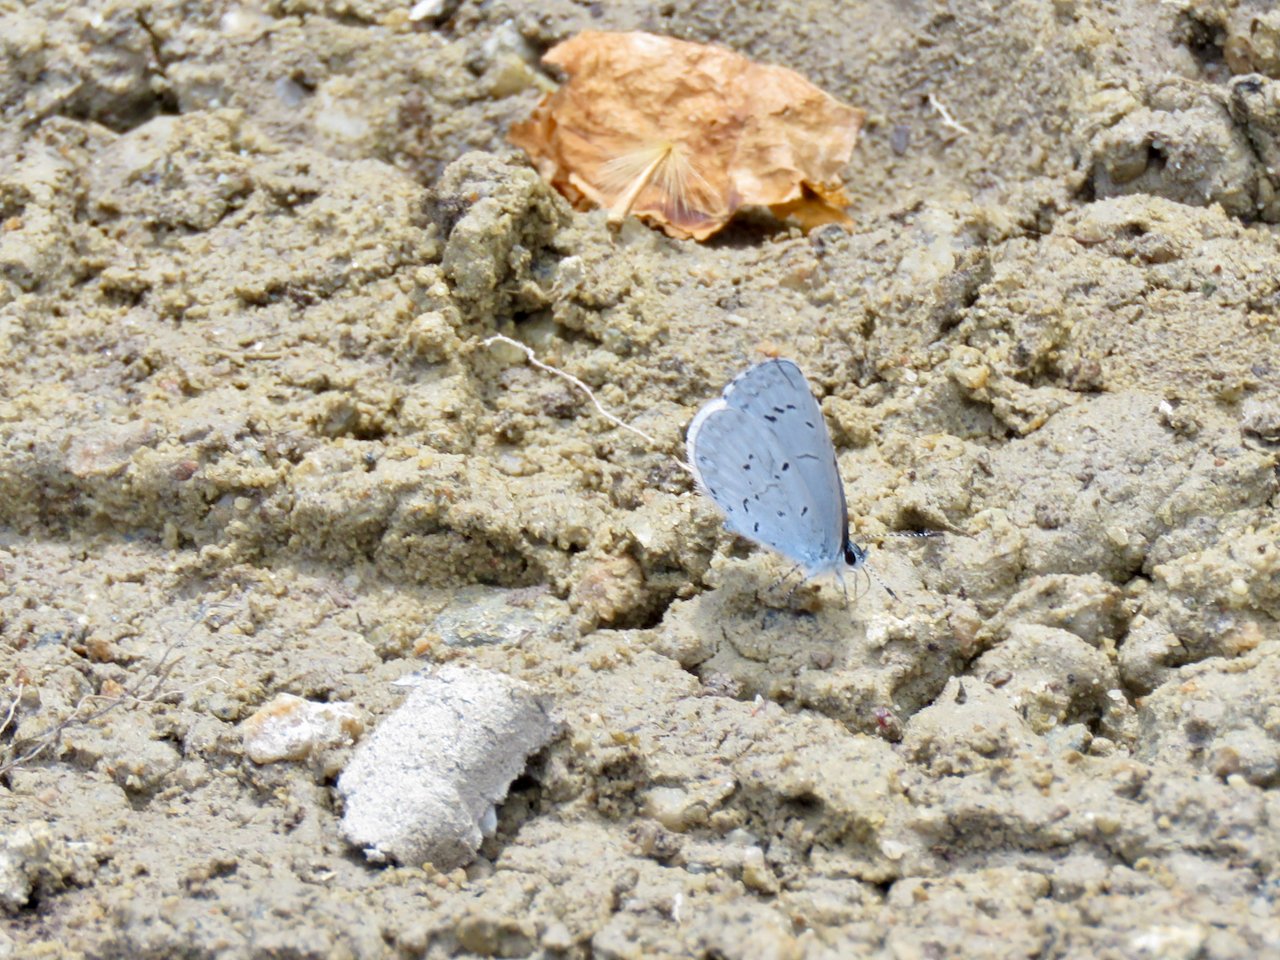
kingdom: Animalia
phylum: Arthropoda
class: Insecta
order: Lepidoptera
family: Lycaenidae
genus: Cyaniris
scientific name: Cyaniris neglecta
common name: Summer Azure
